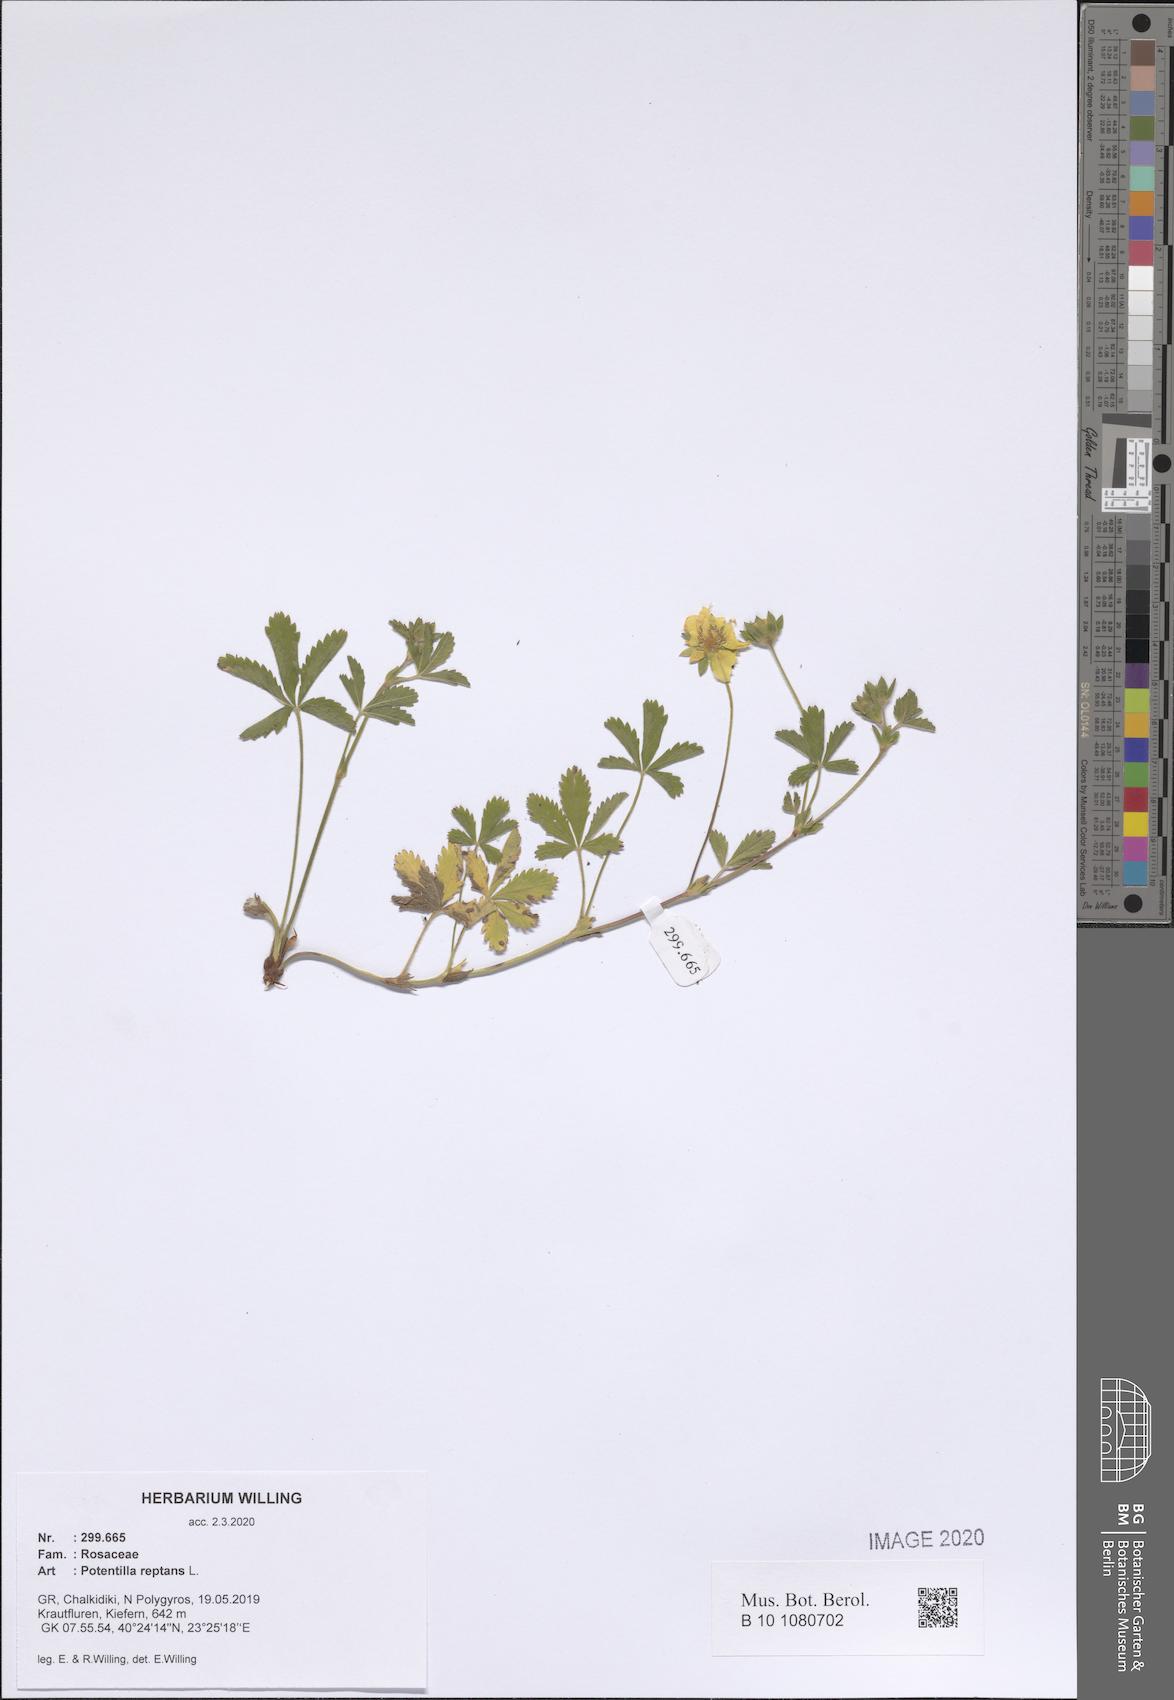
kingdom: Plantae
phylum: Tracheophyta
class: Magnoliopsida
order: Rosales
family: Rosaceae
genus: Potentilla
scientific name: Potentilla reptans
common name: Creeping cinquefoil
